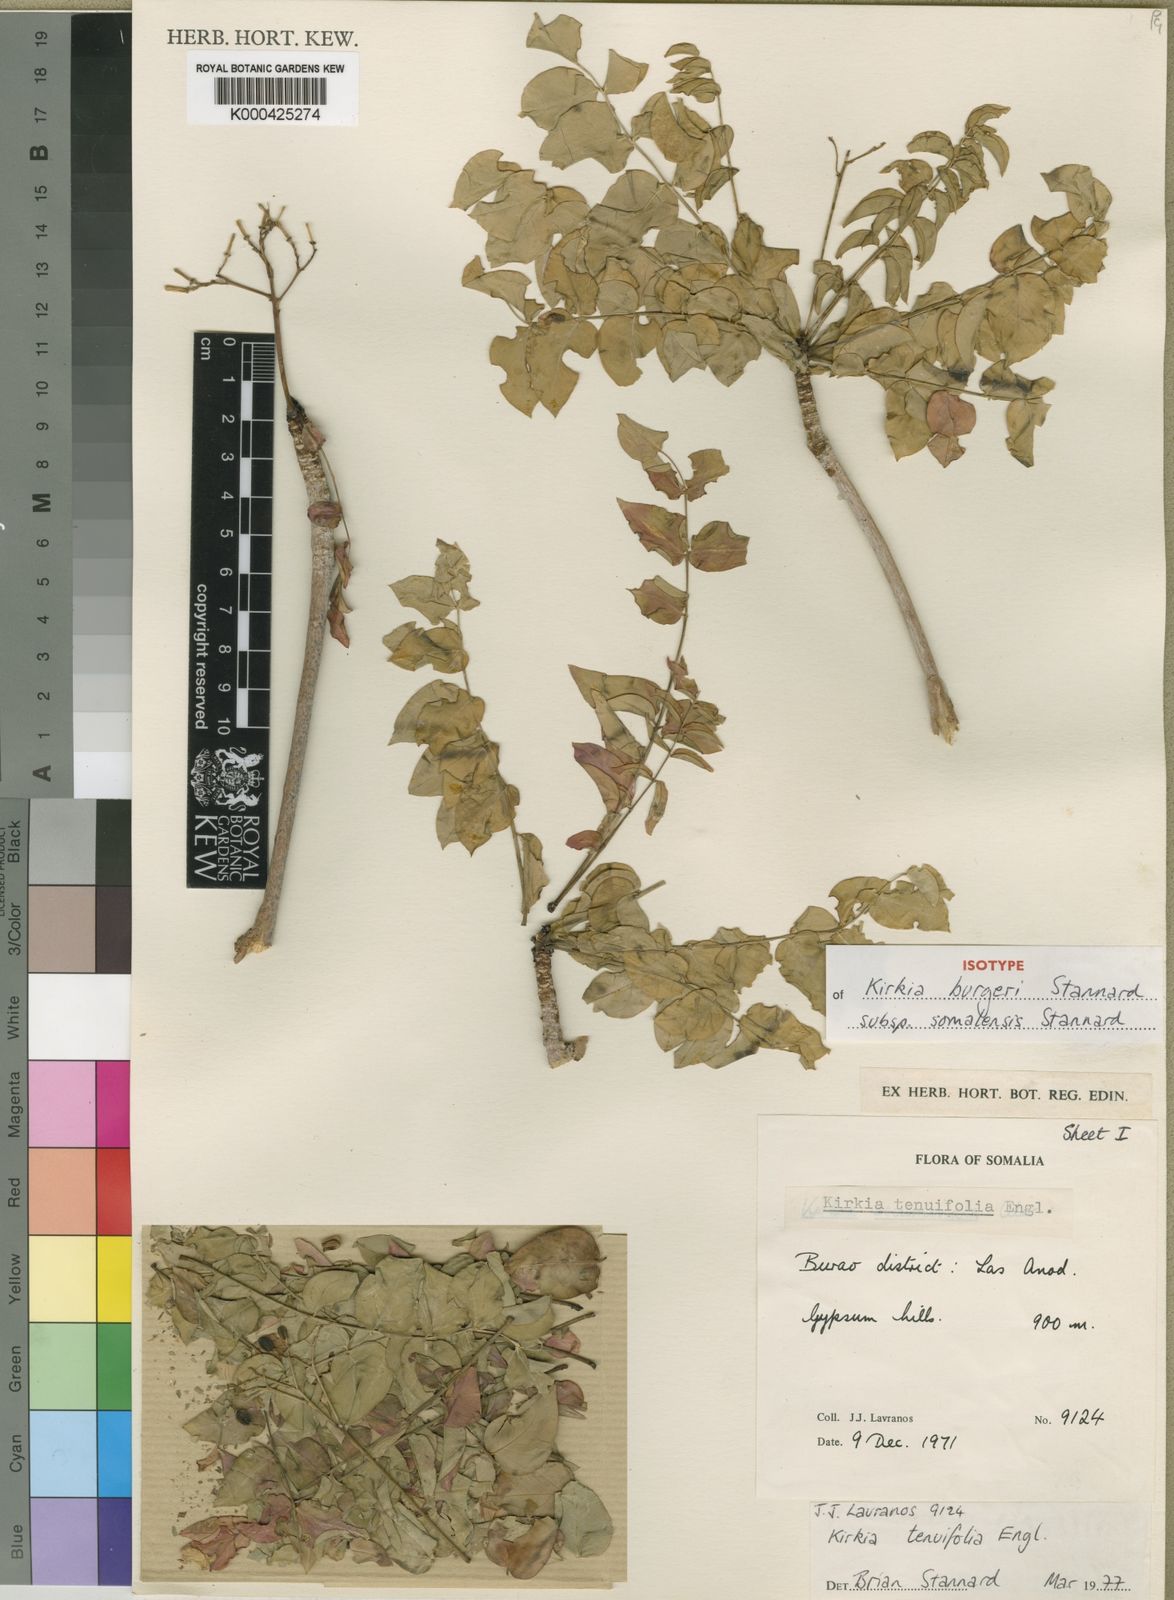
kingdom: Plantae
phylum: Tracheophyta
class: Magnoliopsida
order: Sapindales
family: Kirkiaceae
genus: Kirkia
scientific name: Kirkia burgeri
